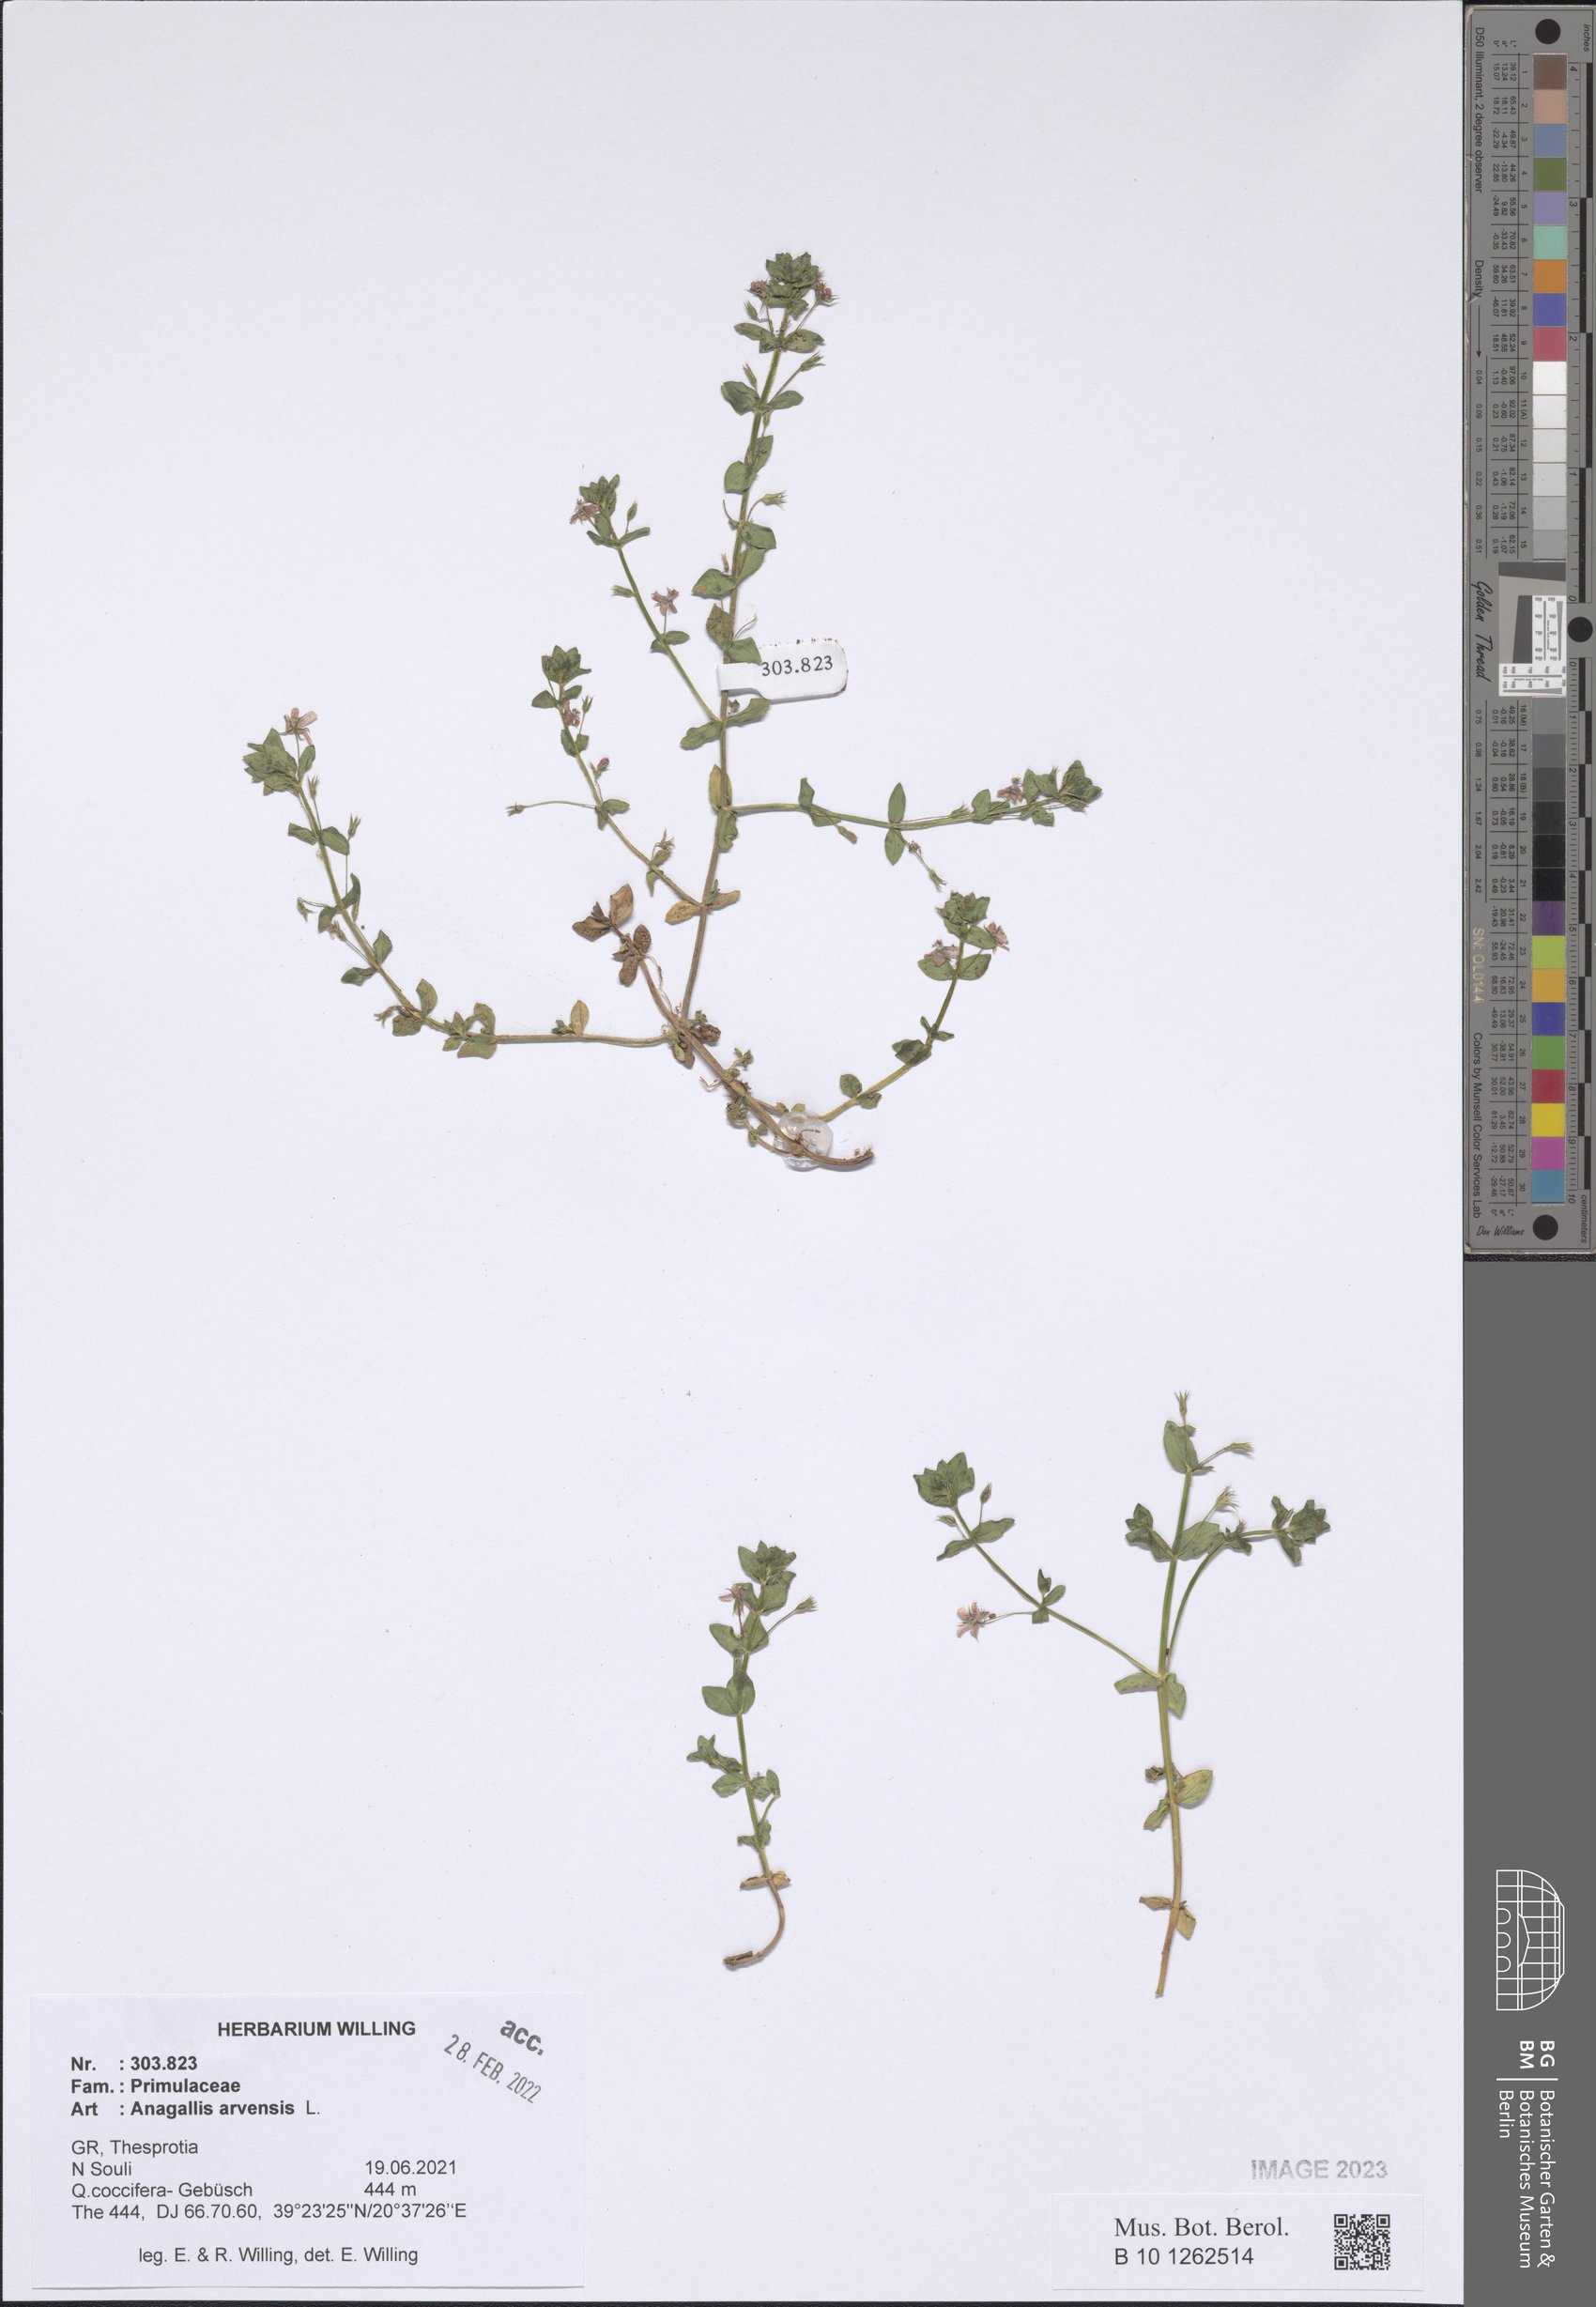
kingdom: Plantae
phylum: Tracheophyta
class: Magnoliopsida
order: Ericales
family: Primulaceae
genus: Lysimachia
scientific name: Lysimachia arvensis
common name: Scarlet pimpernel
